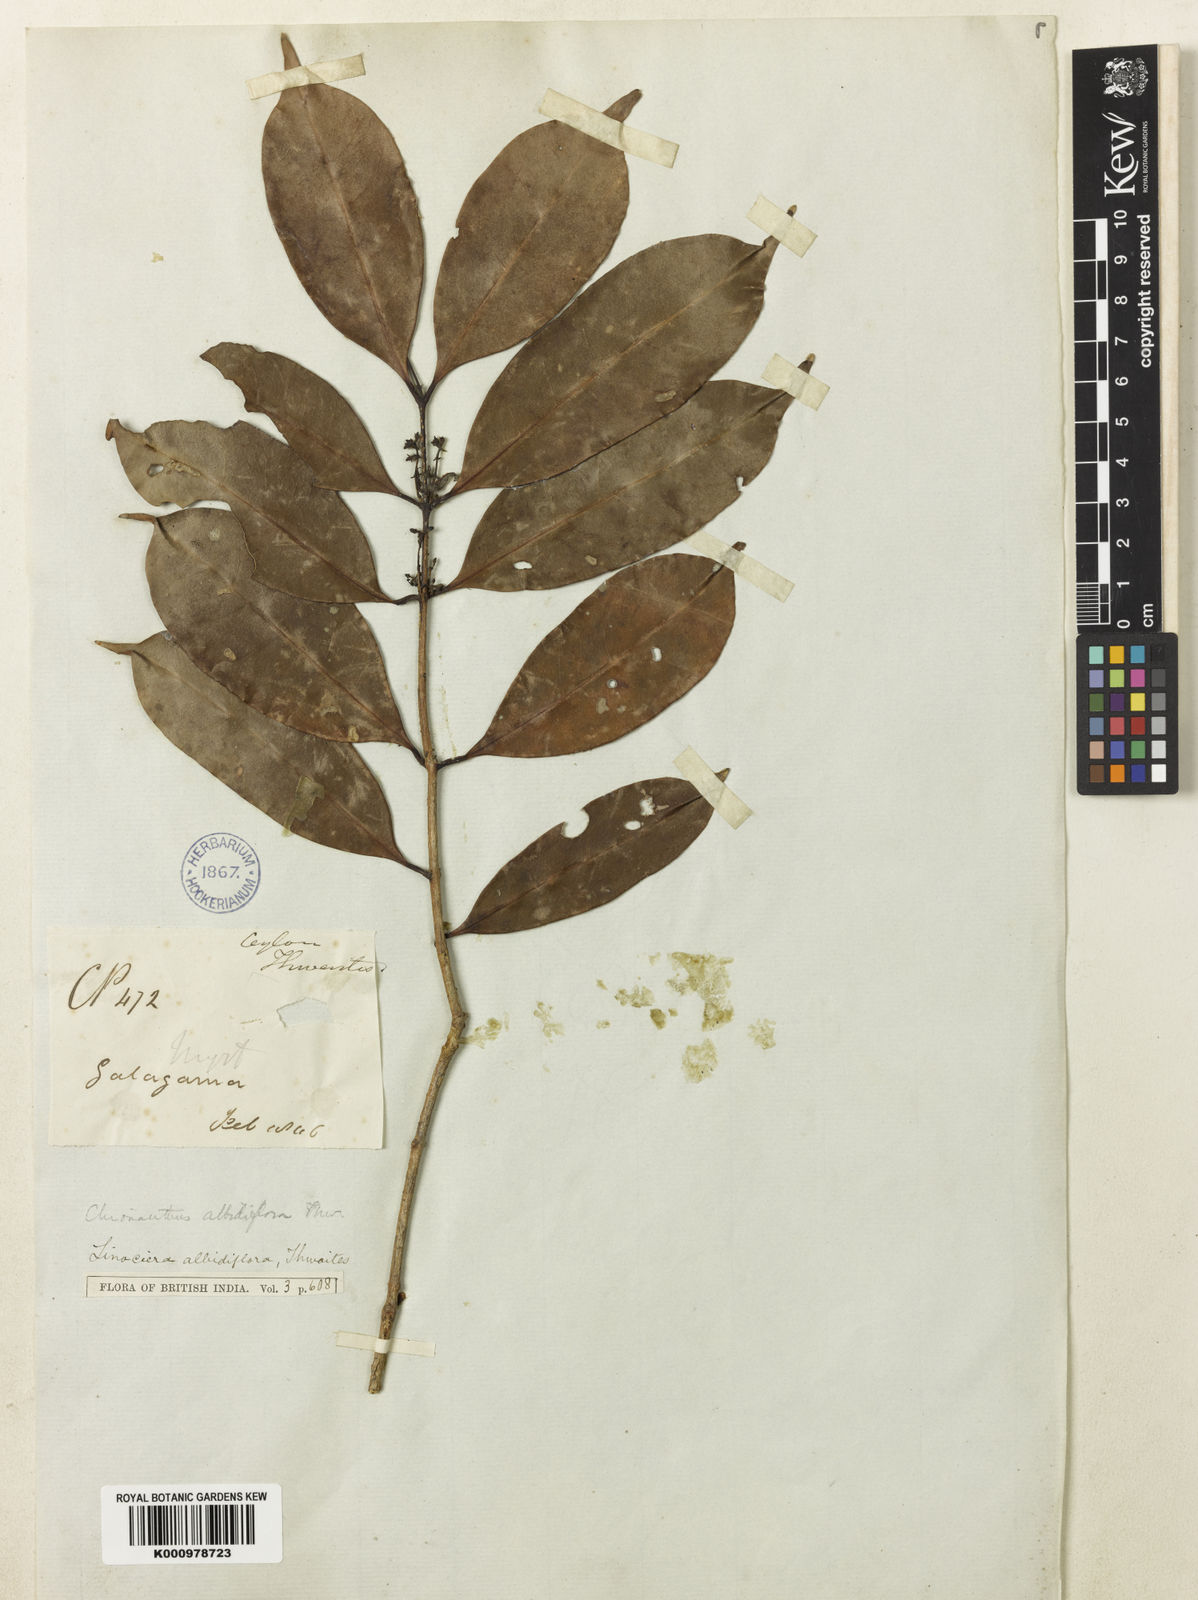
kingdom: Plantae
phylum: Tracheophyta
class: Magnoliopsida
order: Lamiales
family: Oleaceae
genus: Chionanthus
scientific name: Chionanthus albidiflorus
